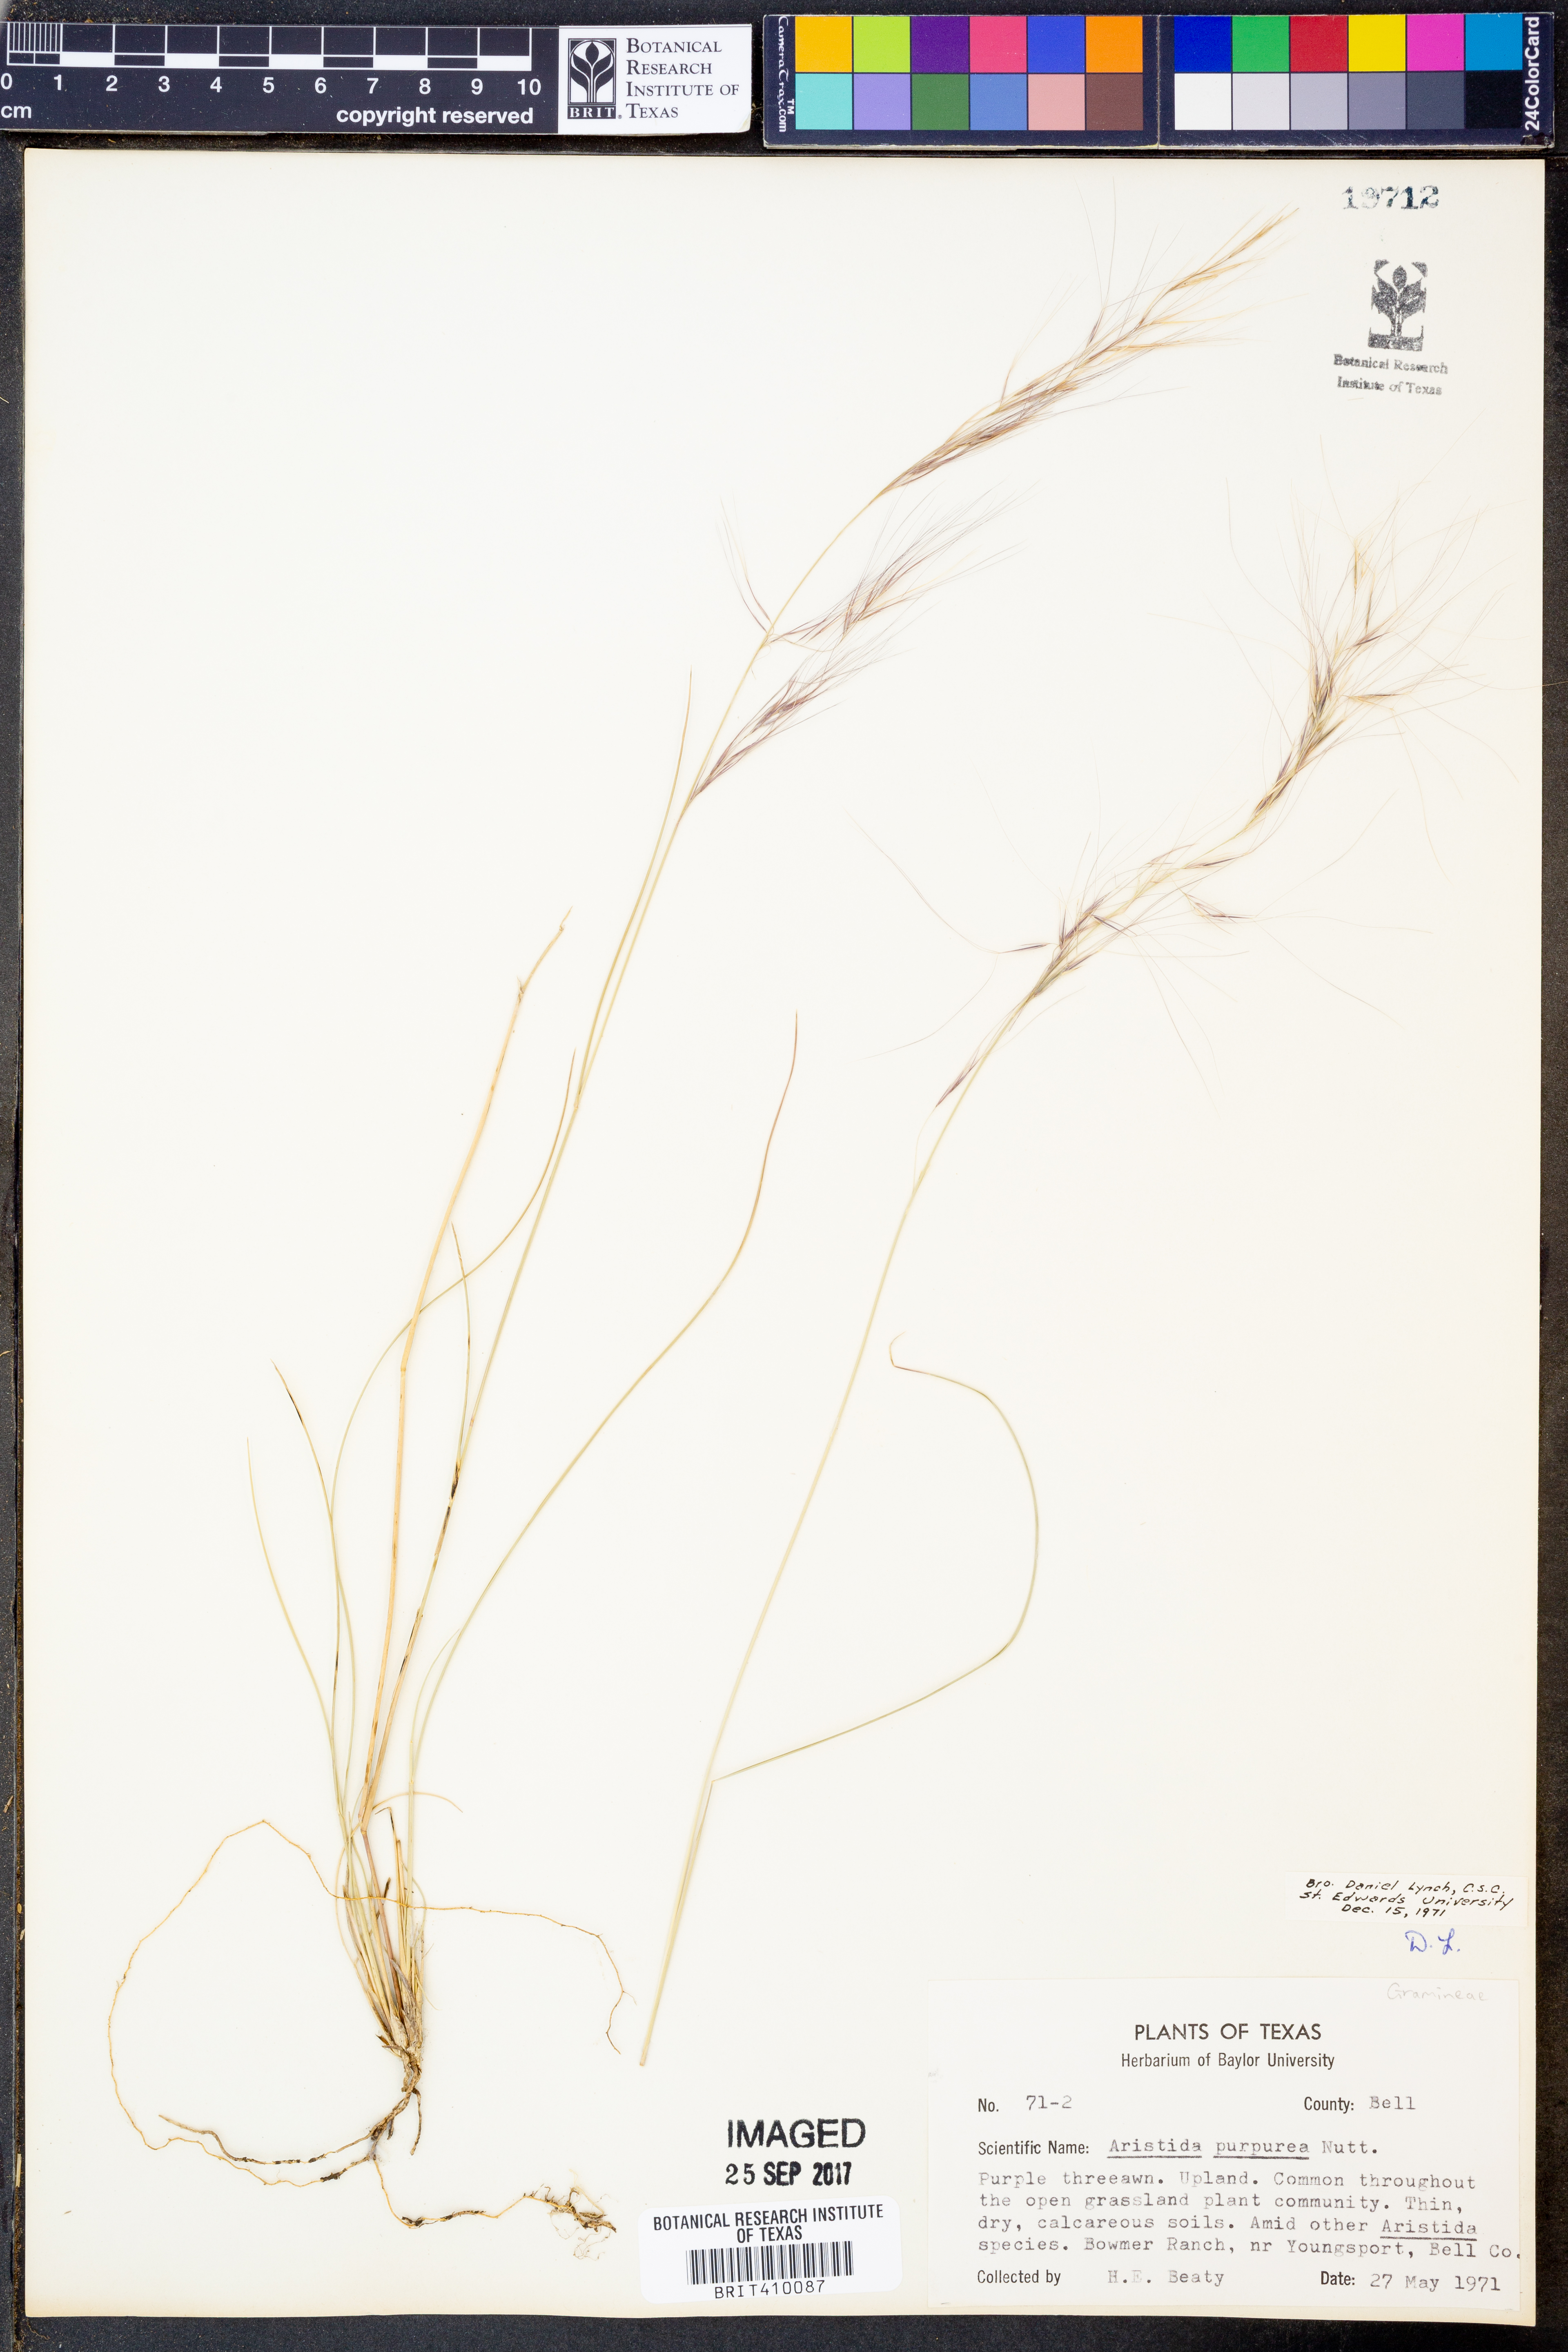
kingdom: Plantae
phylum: Tracheophyta
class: Liliopsida
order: Poales
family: Poaceae
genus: Aristida
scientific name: Aristida purpurea
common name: Purple threeawn
